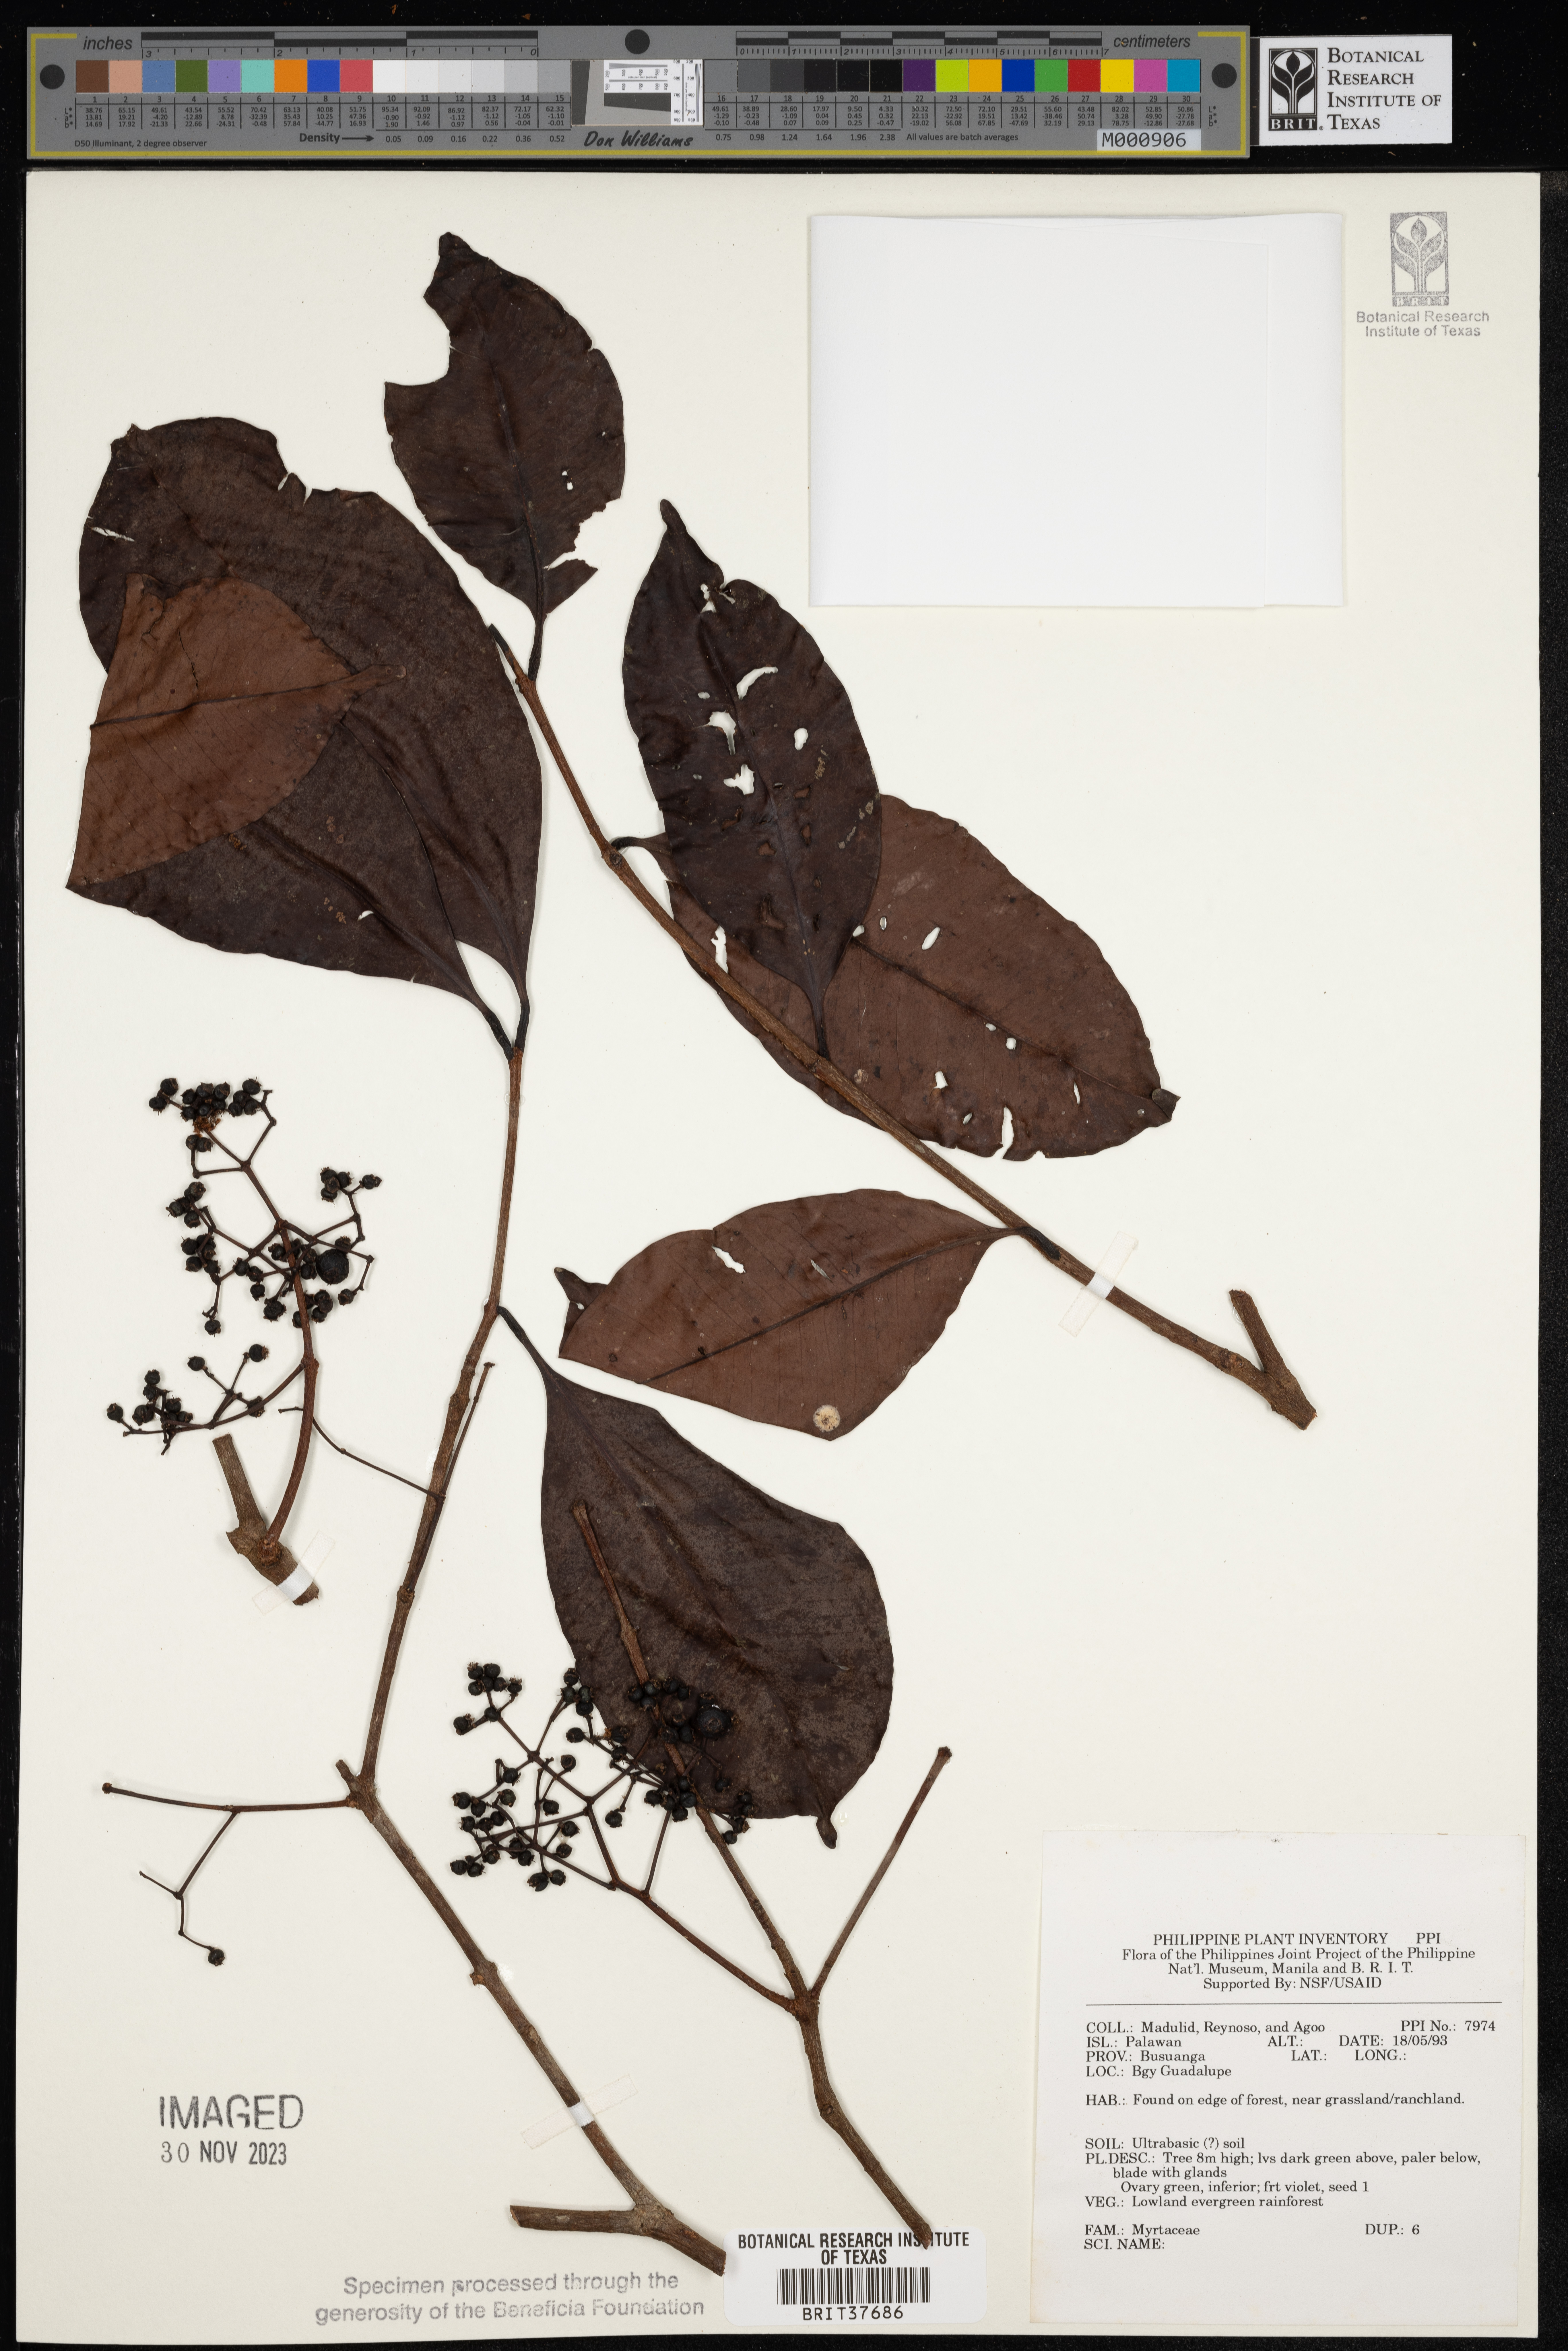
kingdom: Plantae
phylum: Tracheophyta
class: Magnoliopsida
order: Myrtales
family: Myrtaceae
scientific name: Myrtaceae
